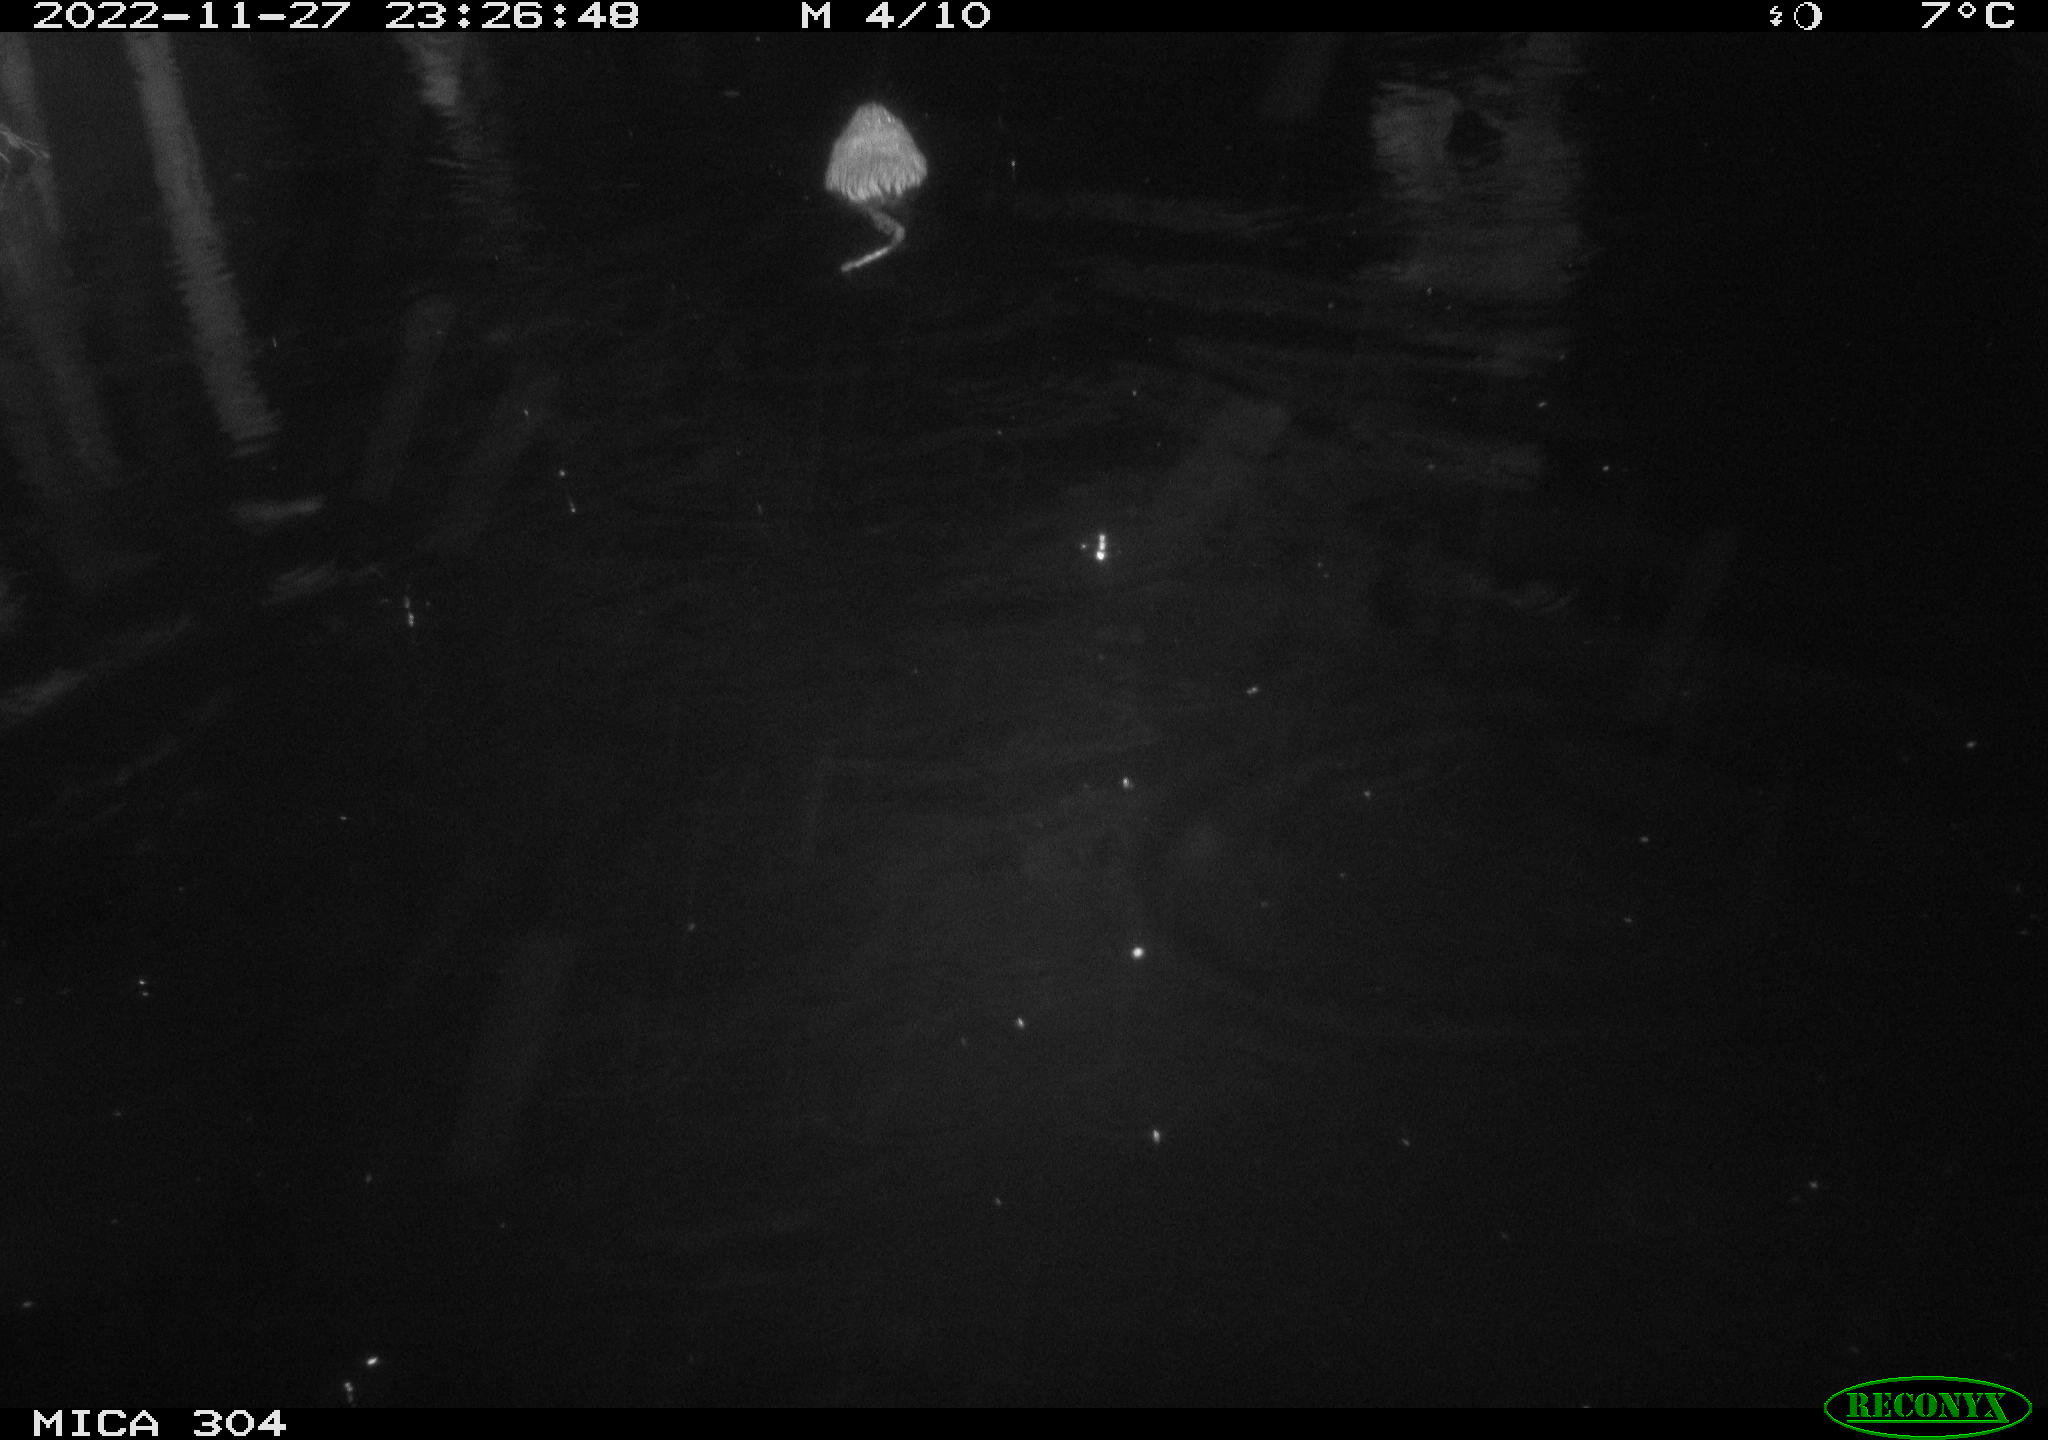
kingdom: Animalia
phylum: Chordata
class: Mammalia
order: Rodentia
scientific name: Rodentia
